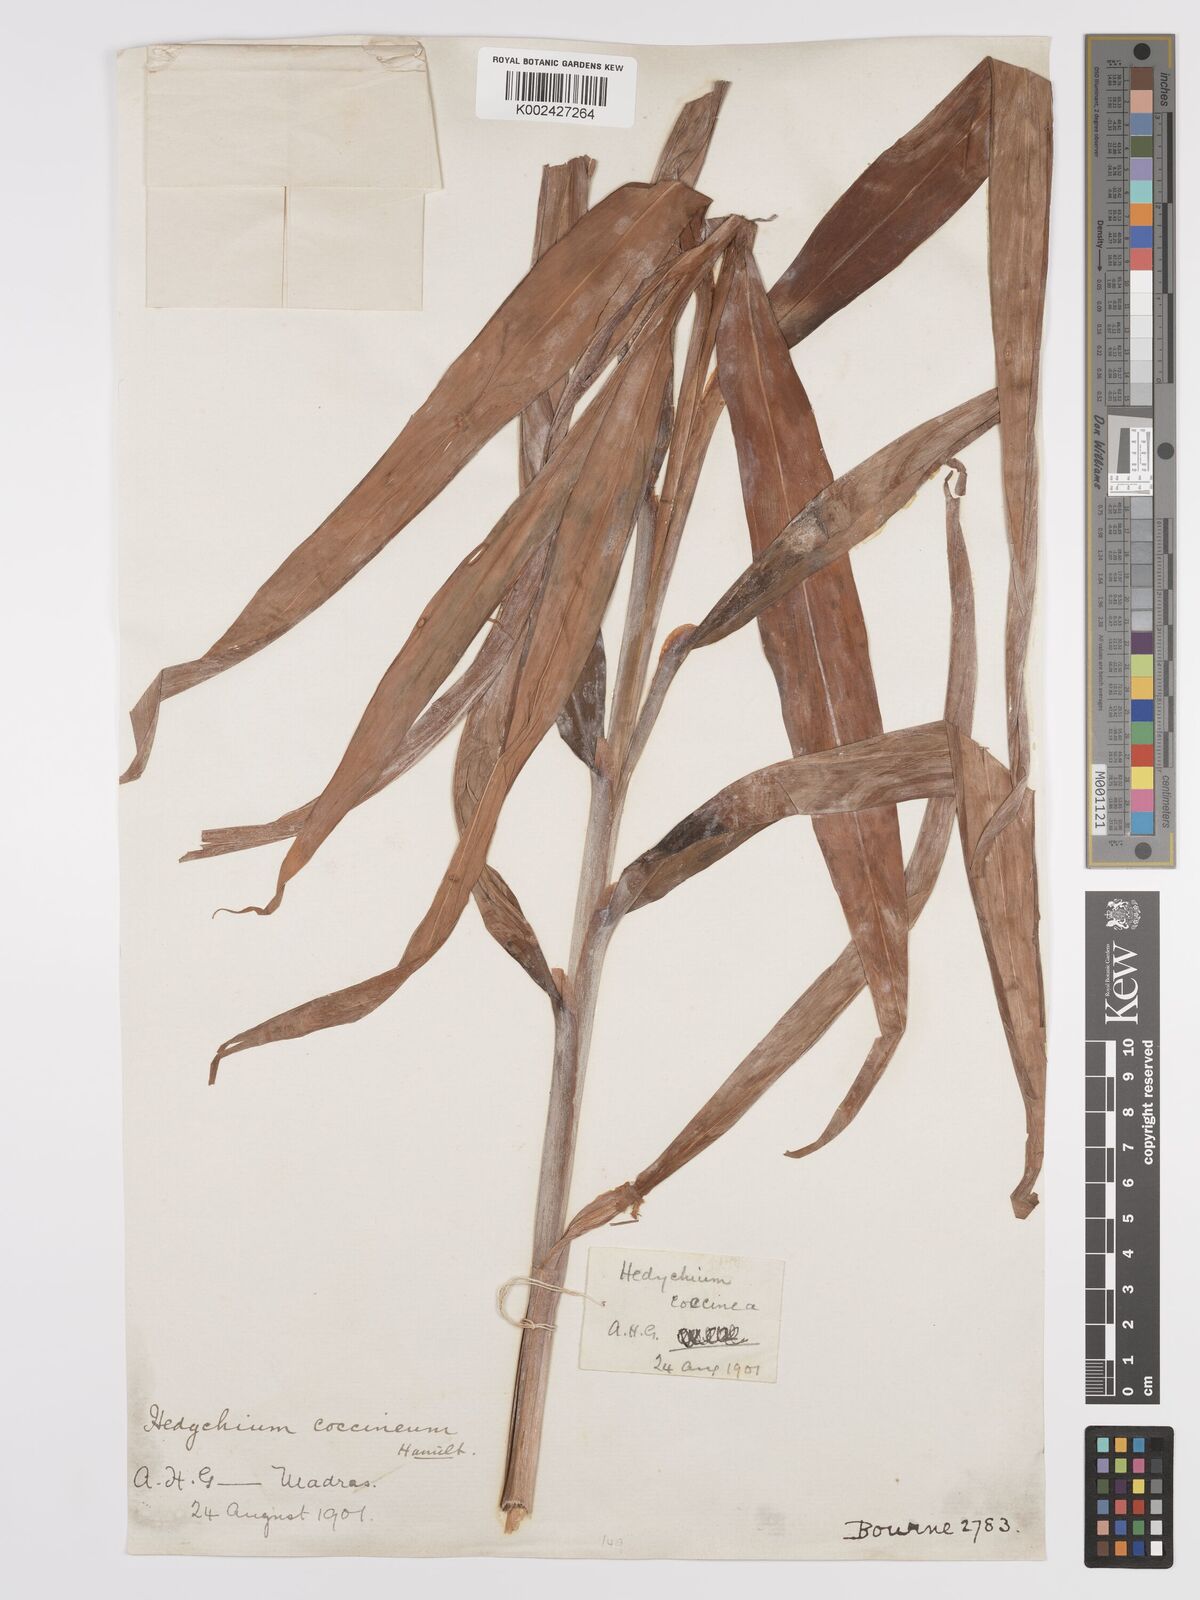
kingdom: Plantae
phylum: Tracheophyta
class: Liliopsida
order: Zingiberales
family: Zingiberaceae
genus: Hedychium
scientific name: Hedychium coccineum
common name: Red ginger-lily
